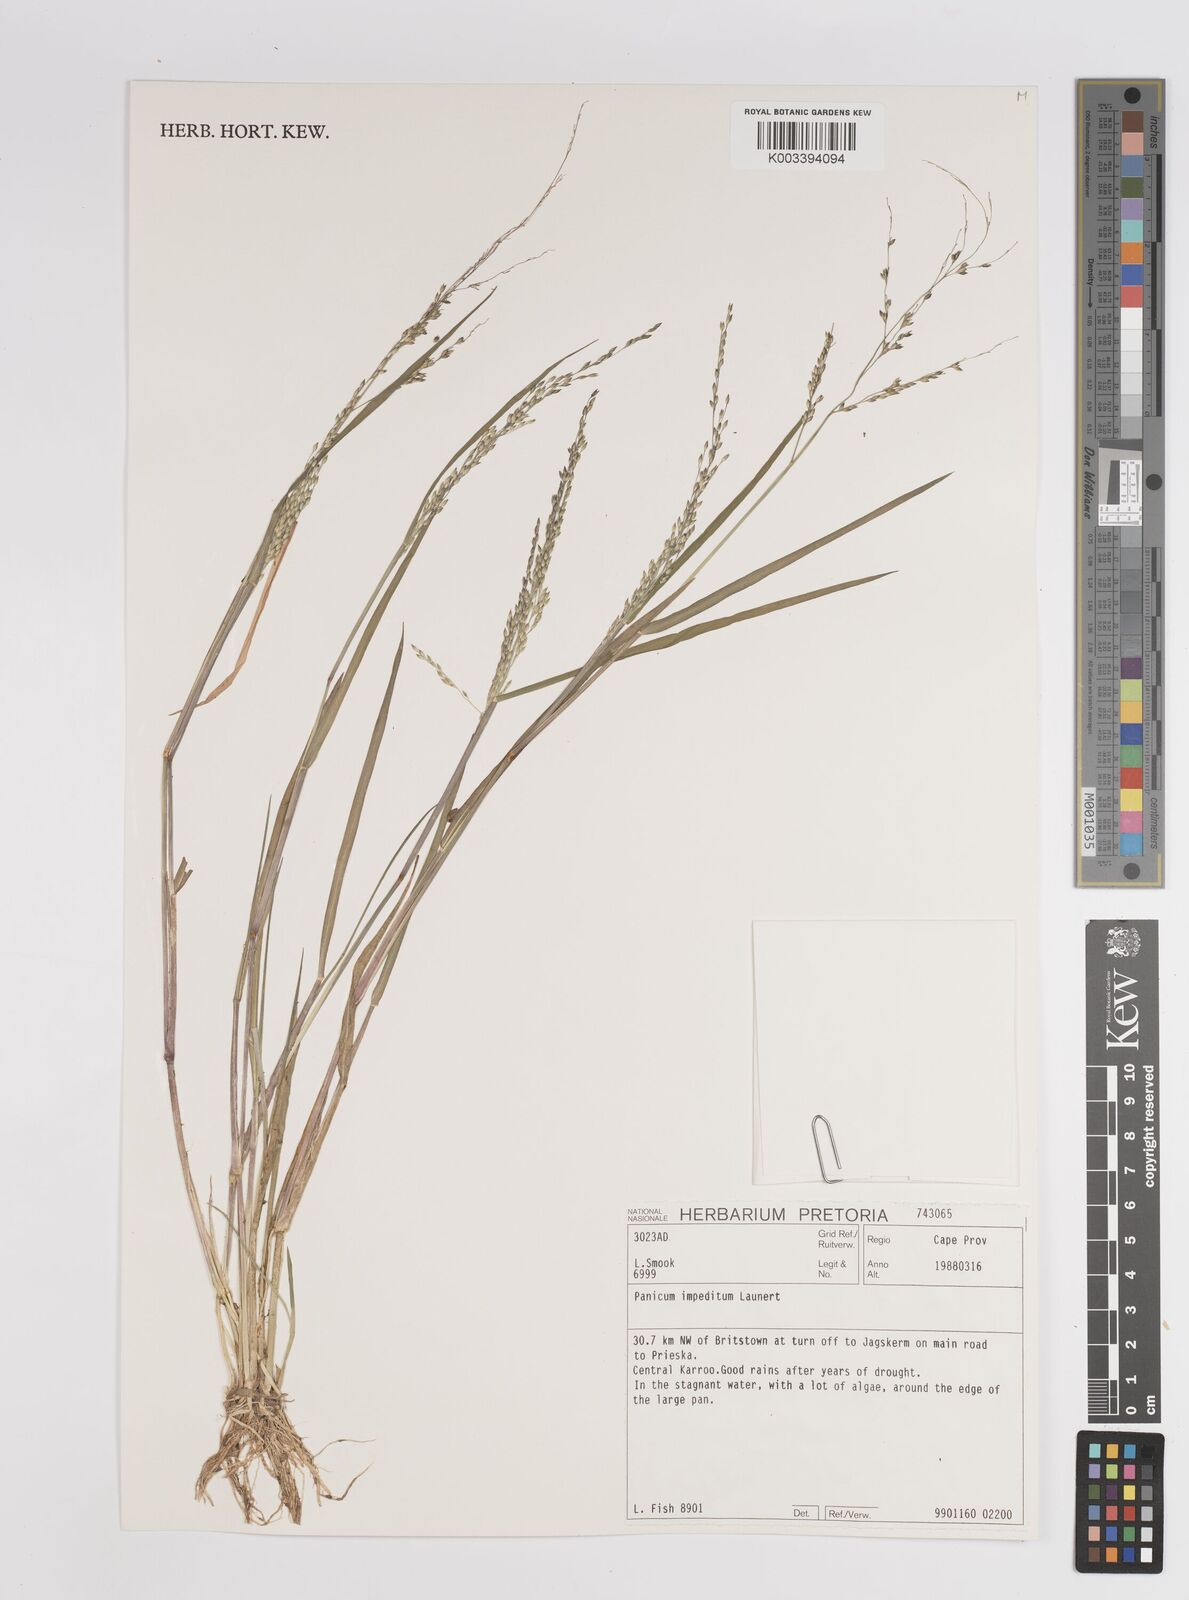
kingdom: Plantae
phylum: Tracheophyta
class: Liliopsida
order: Poales
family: Poaceae
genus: Panicum
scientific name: Panicum impeditum
